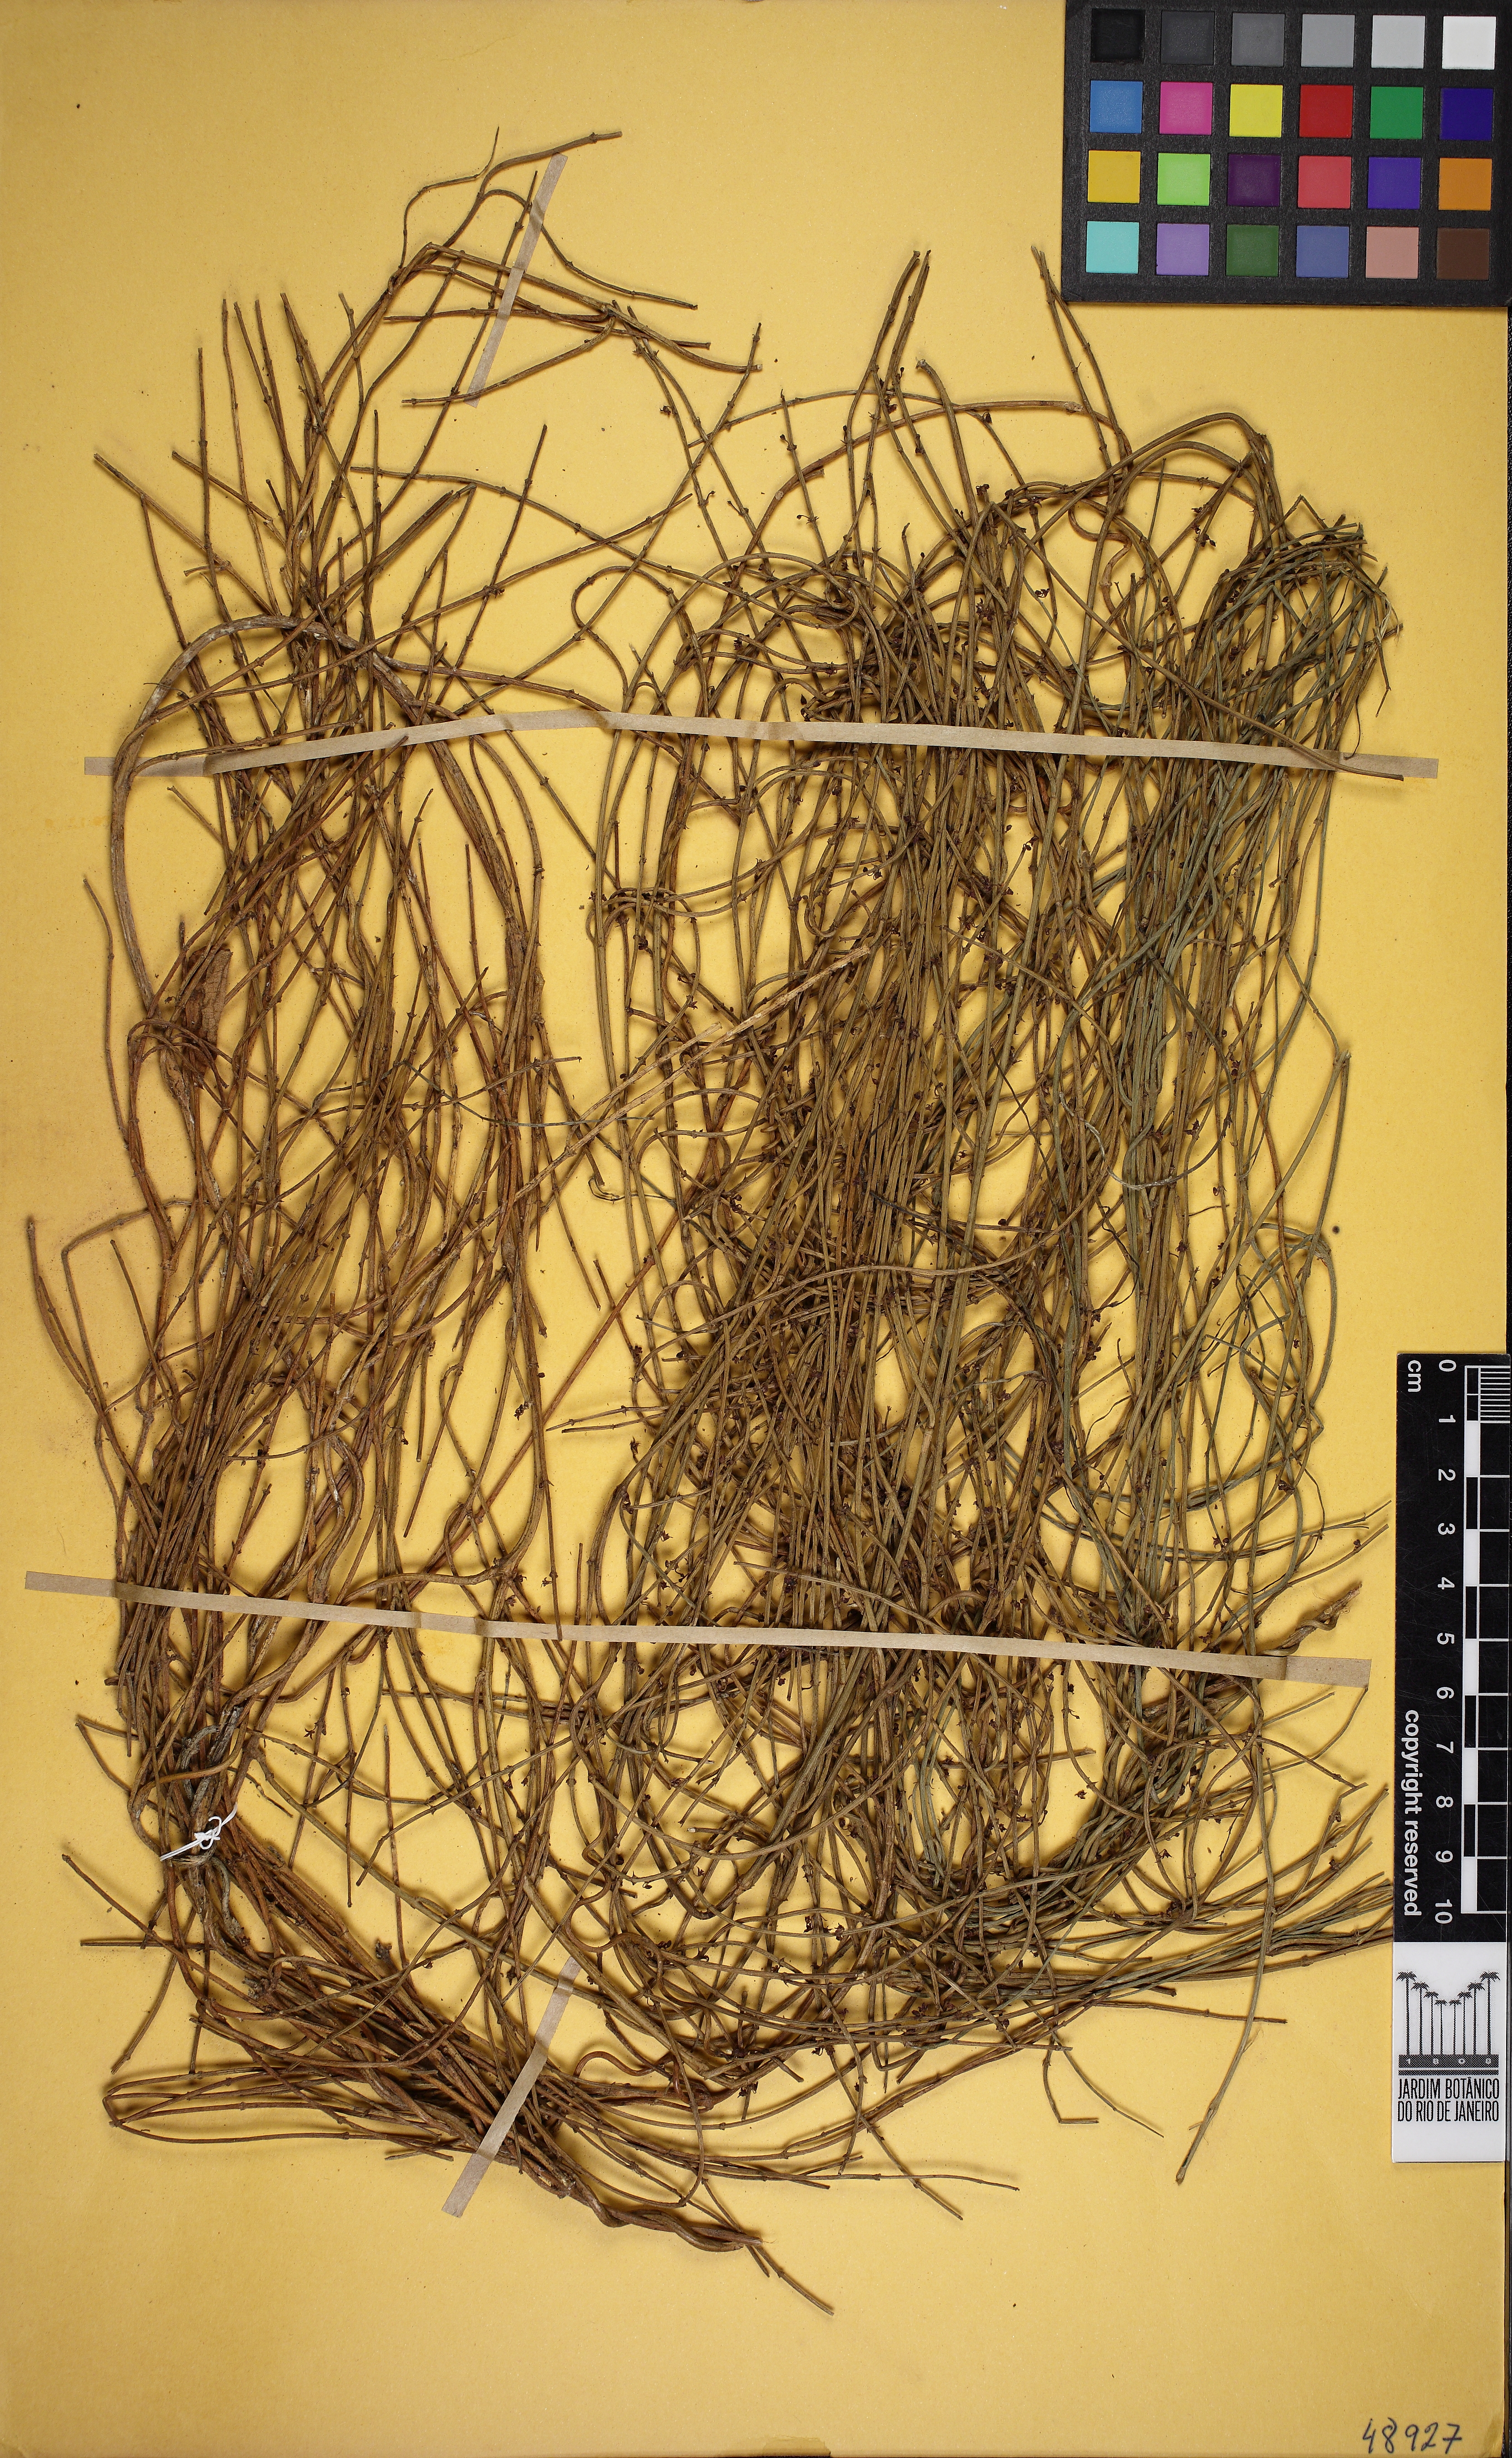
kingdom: Plantae
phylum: Tracheophyta
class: Magnoliopsida
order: Gentianales
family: Apocynaceae
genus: Orthosia
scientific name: Orthosia scoparia
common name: Leafless swallow-wort
